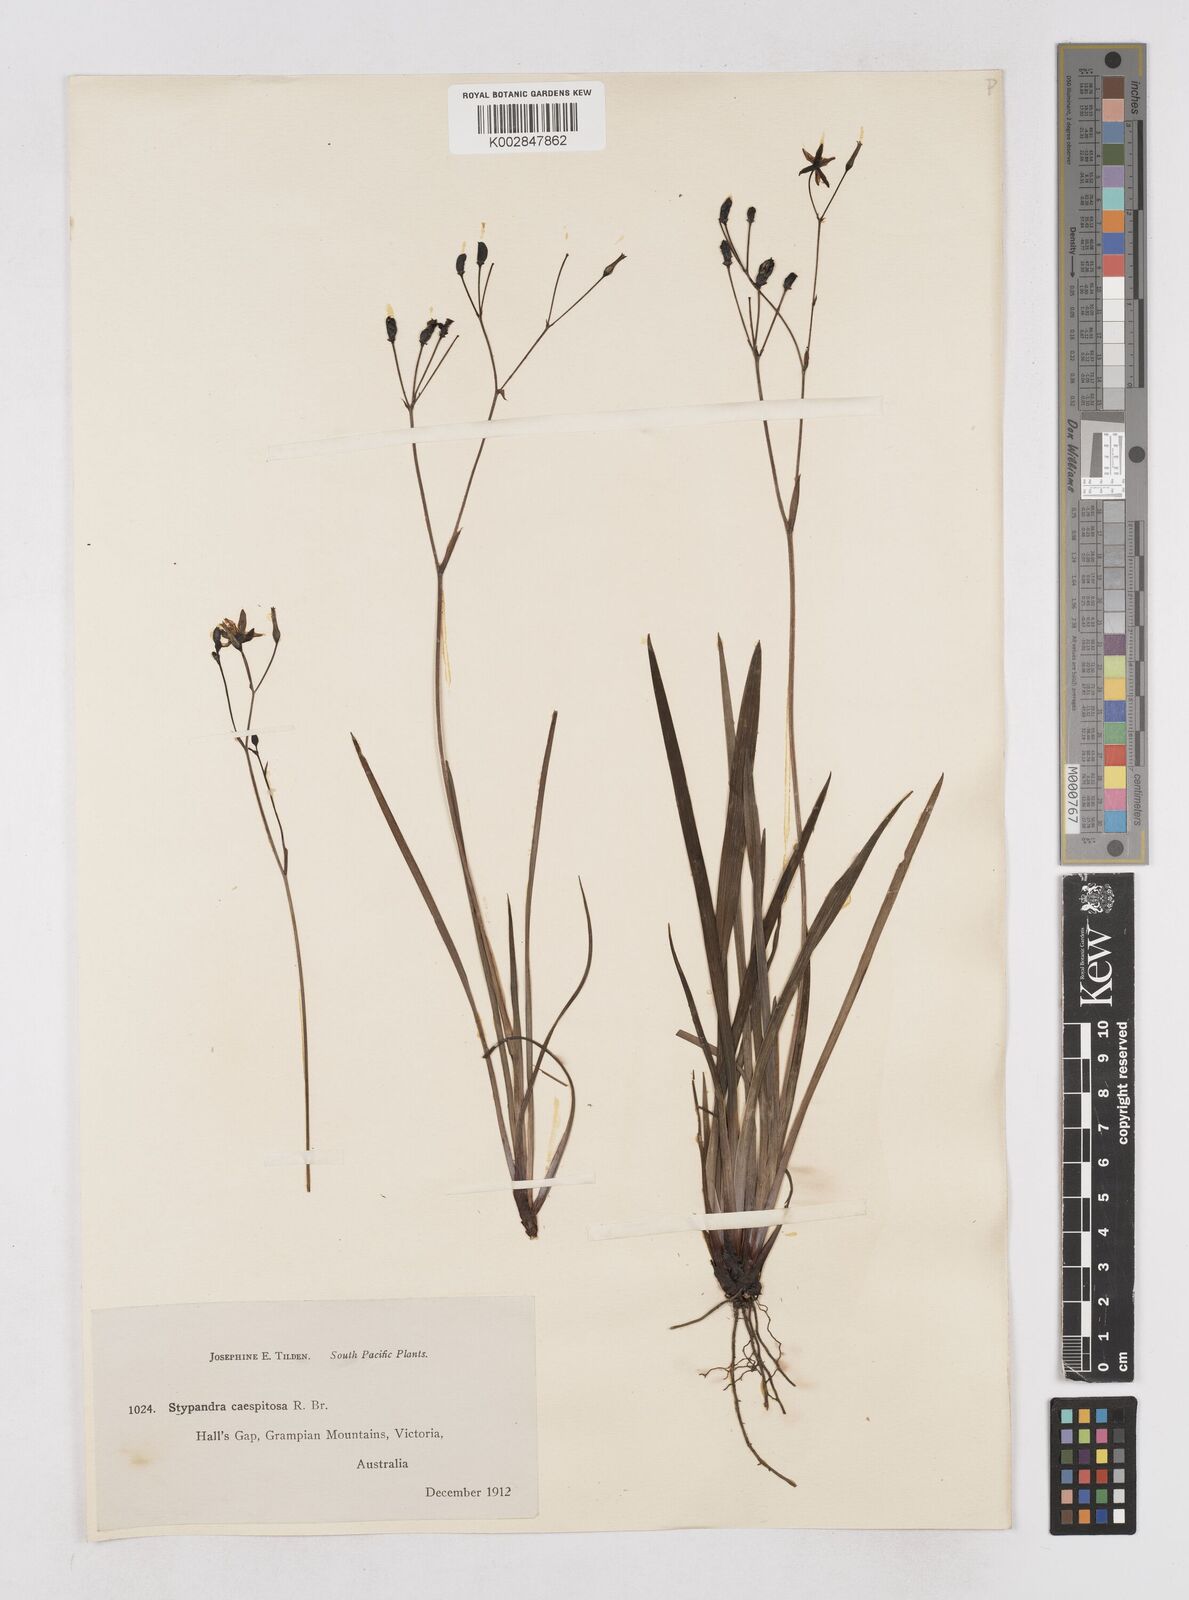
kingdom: Plantae
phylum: Tracheophyta
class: Liliopsida
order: Asparagales
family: Asphodelaceae
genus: Thelionema
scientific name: Thelionema caespitosum
